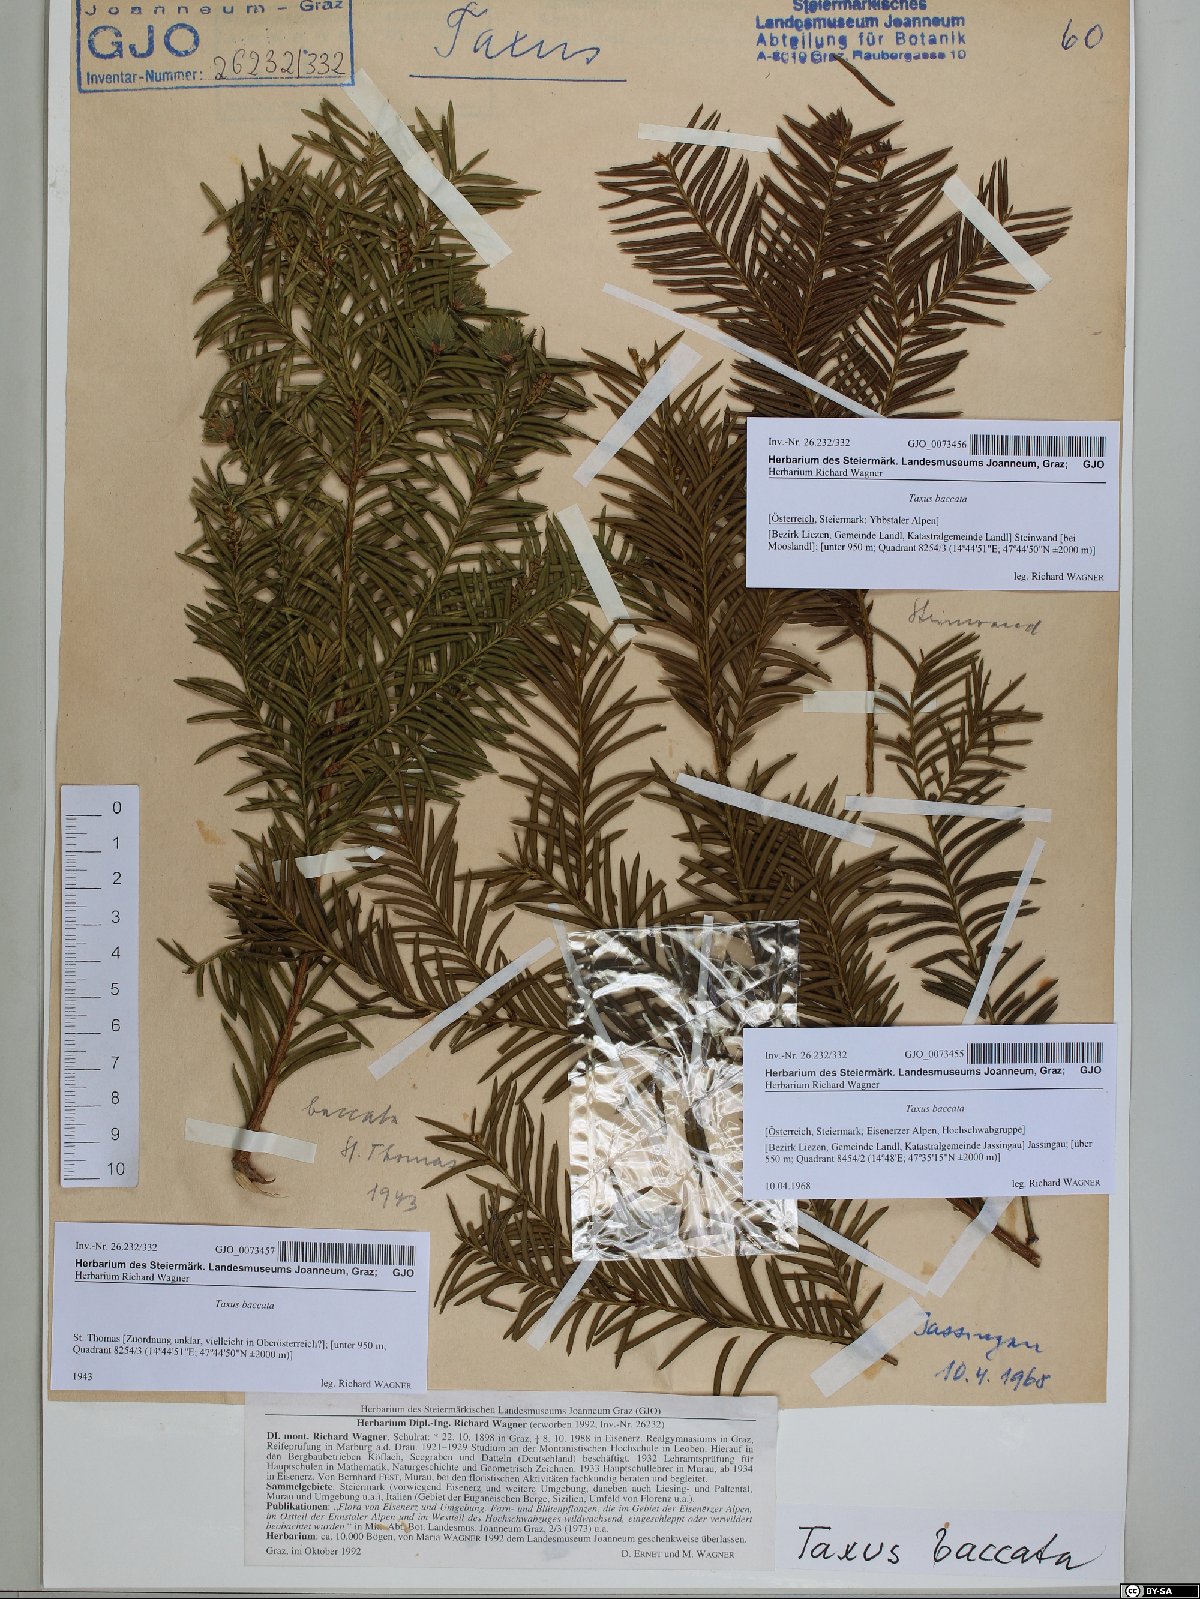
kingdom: Plantae
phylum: Tracheophyta
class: Pinopsida
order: Pinales
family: Taxaceae
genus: Taxus
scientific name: Taxus baccata
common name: Yew
